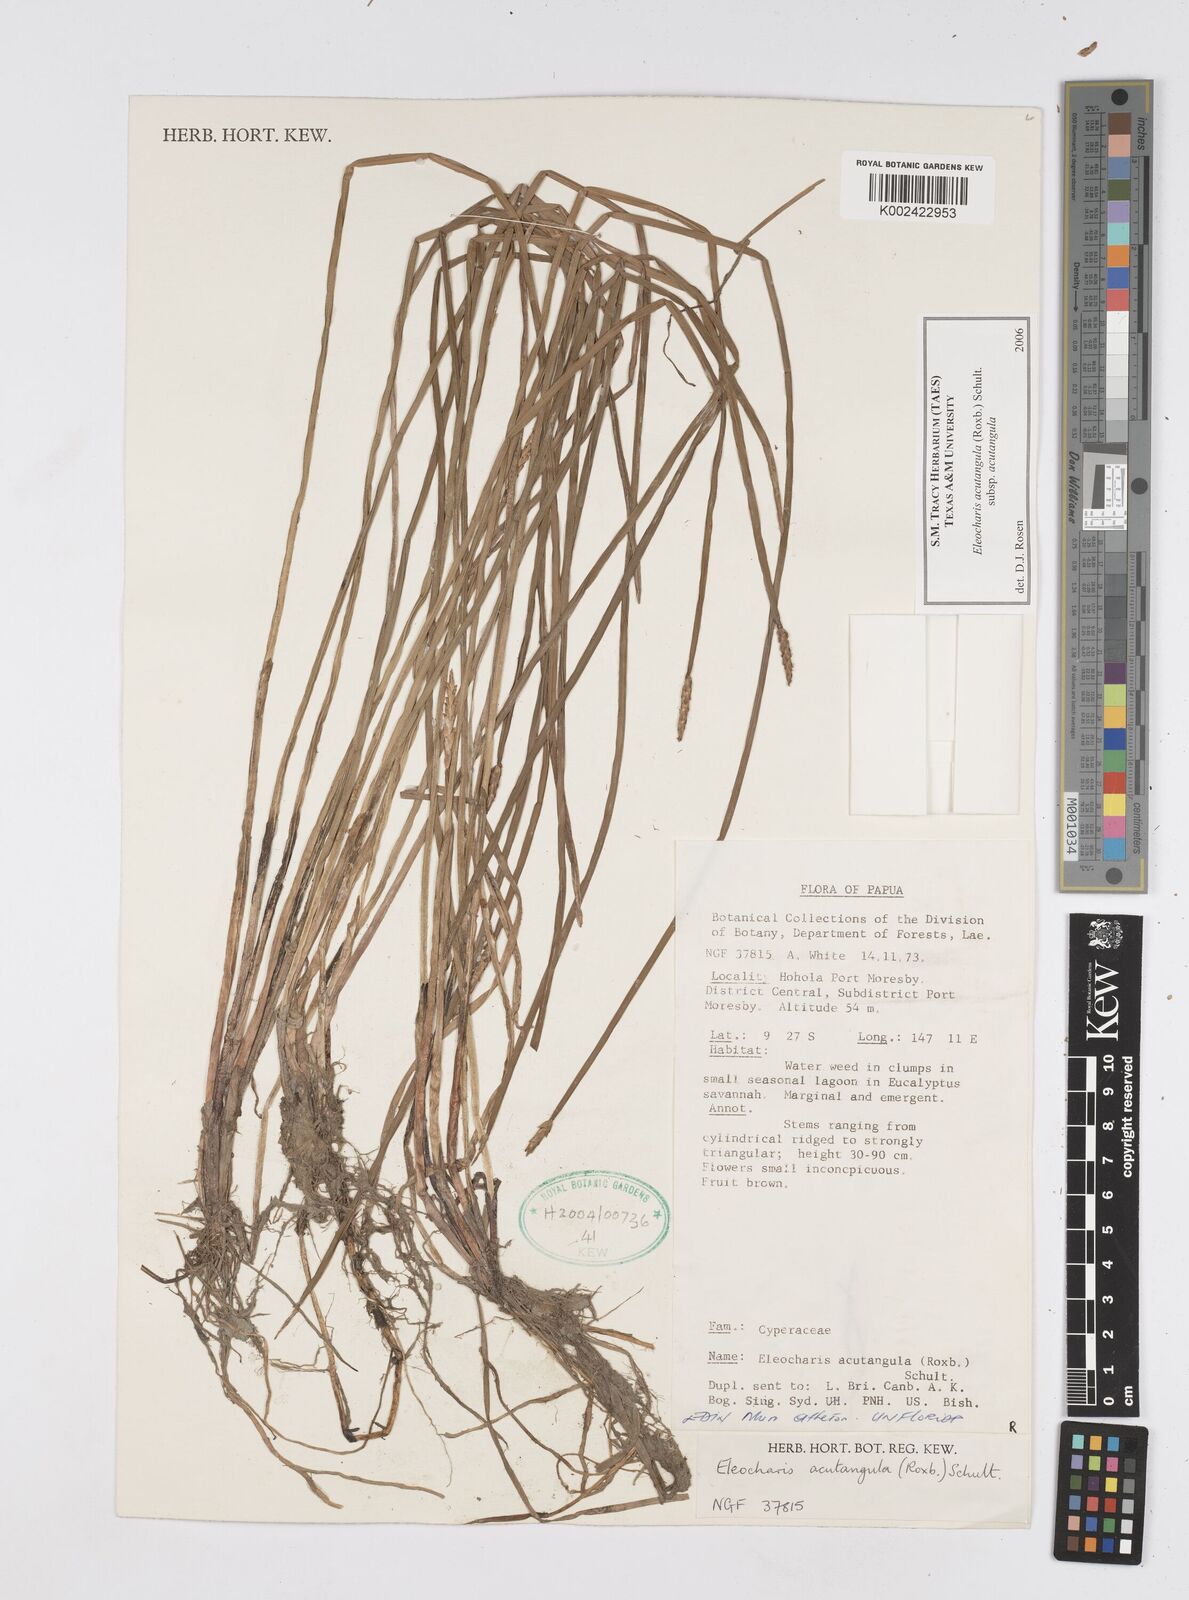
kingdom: Plantae
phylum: Tracheophyta
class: Liliopsida
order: Poales
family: Cyperaceae
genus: Eleocharis
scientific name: Eleocharis acutangula
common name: Acute spikerush
